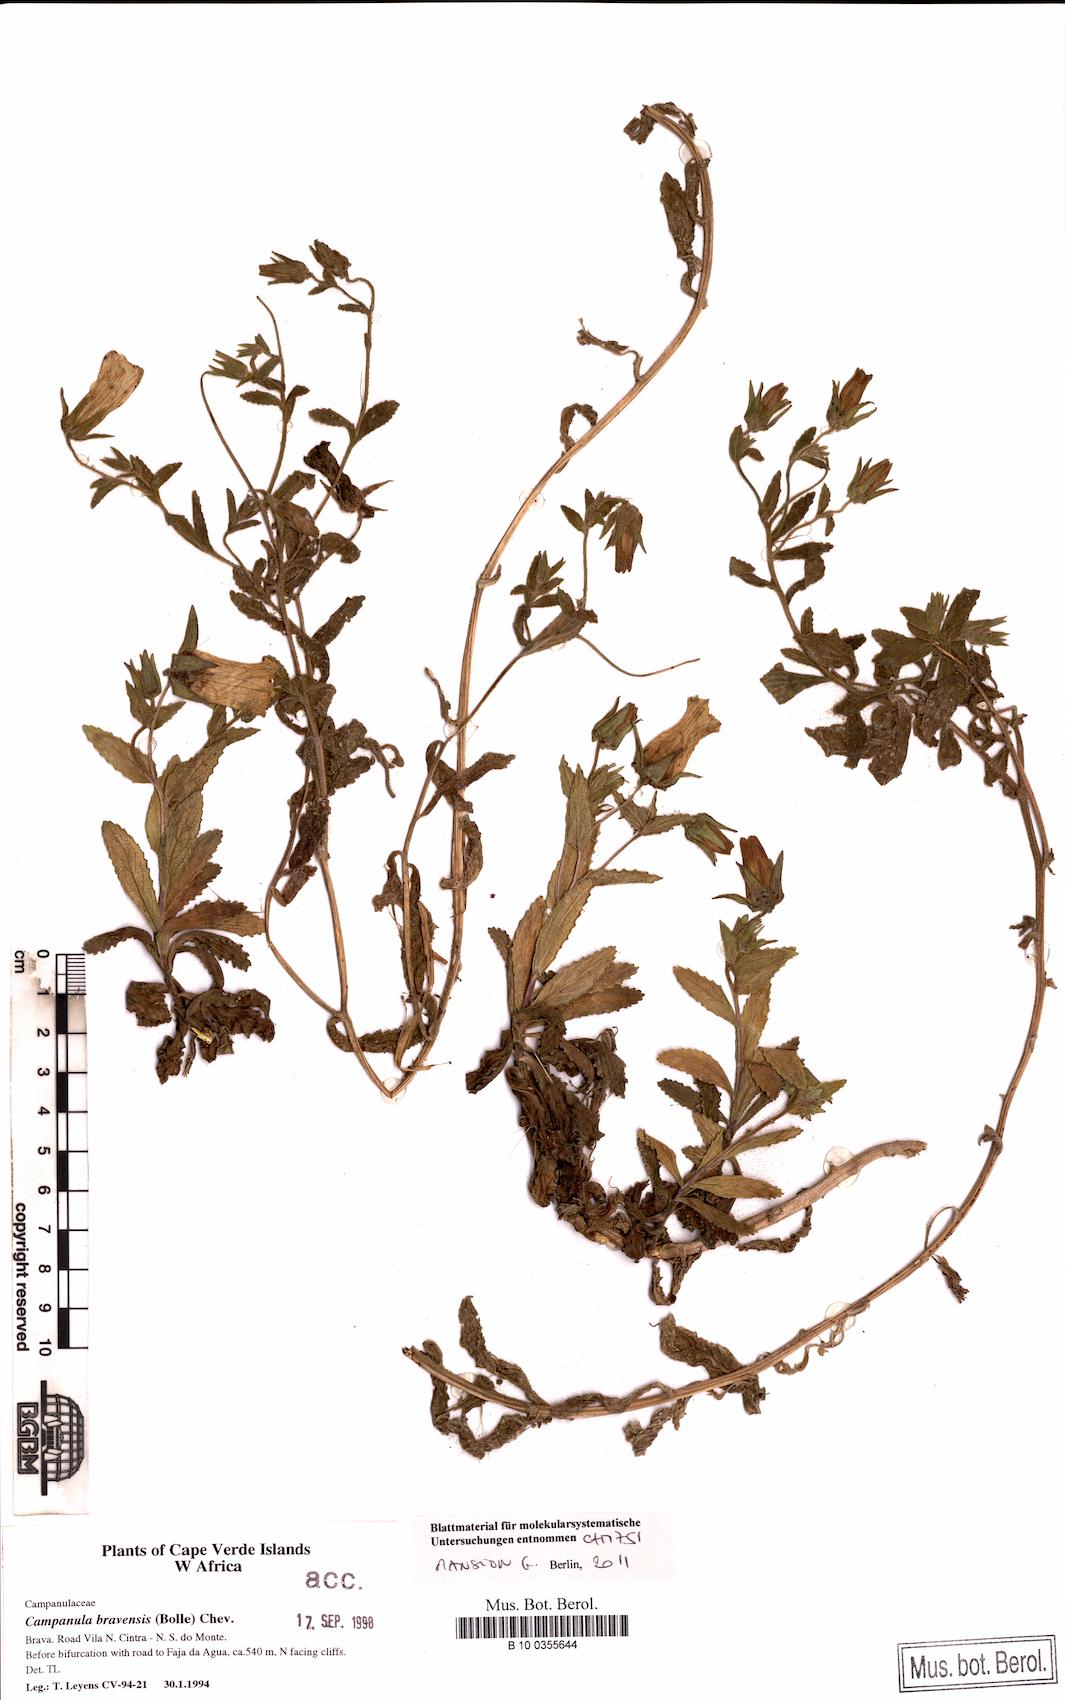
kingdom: Plantae
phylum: Tracheophyta
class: Magnoliopsida
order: Asterales
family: Campanulaceae
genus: Campanula
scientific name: Campanula bravensis
